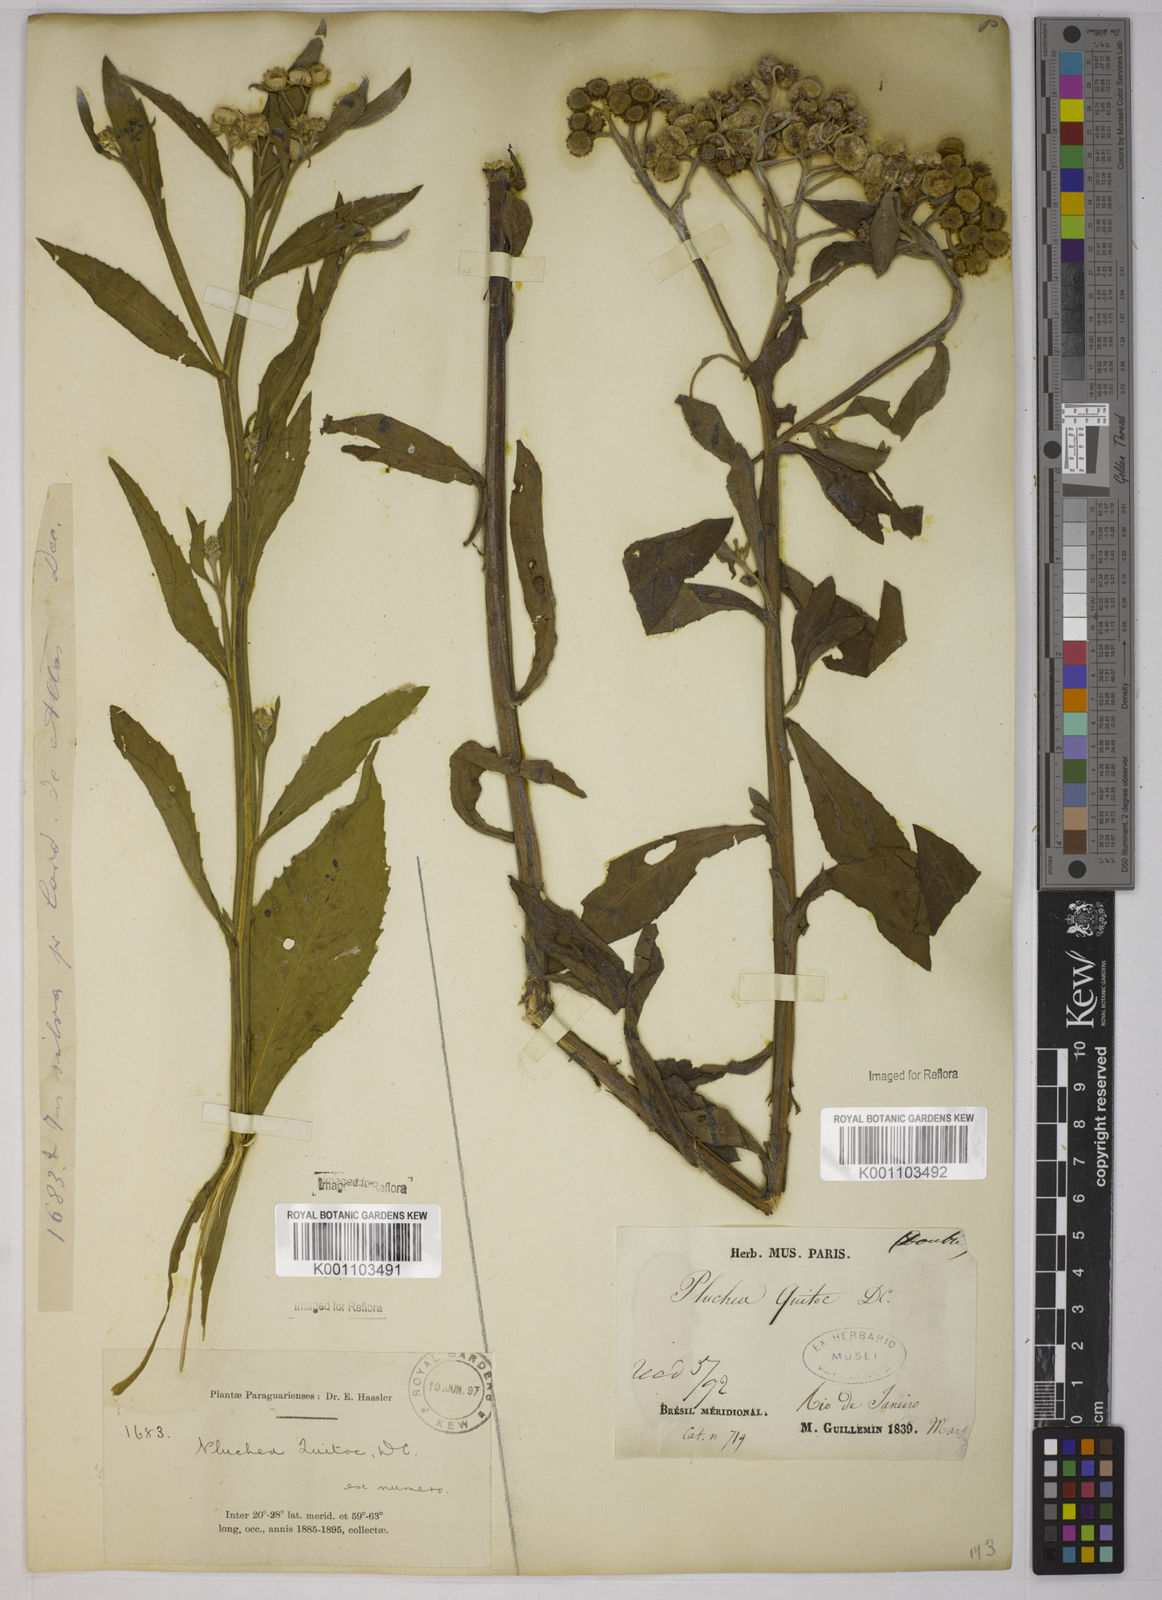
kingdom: Plantae
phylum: Tracheophyta
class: Magnoliopsida
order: Asterales
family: Asteraceae
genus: Pluchea
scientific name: Pluchea sagittalis
